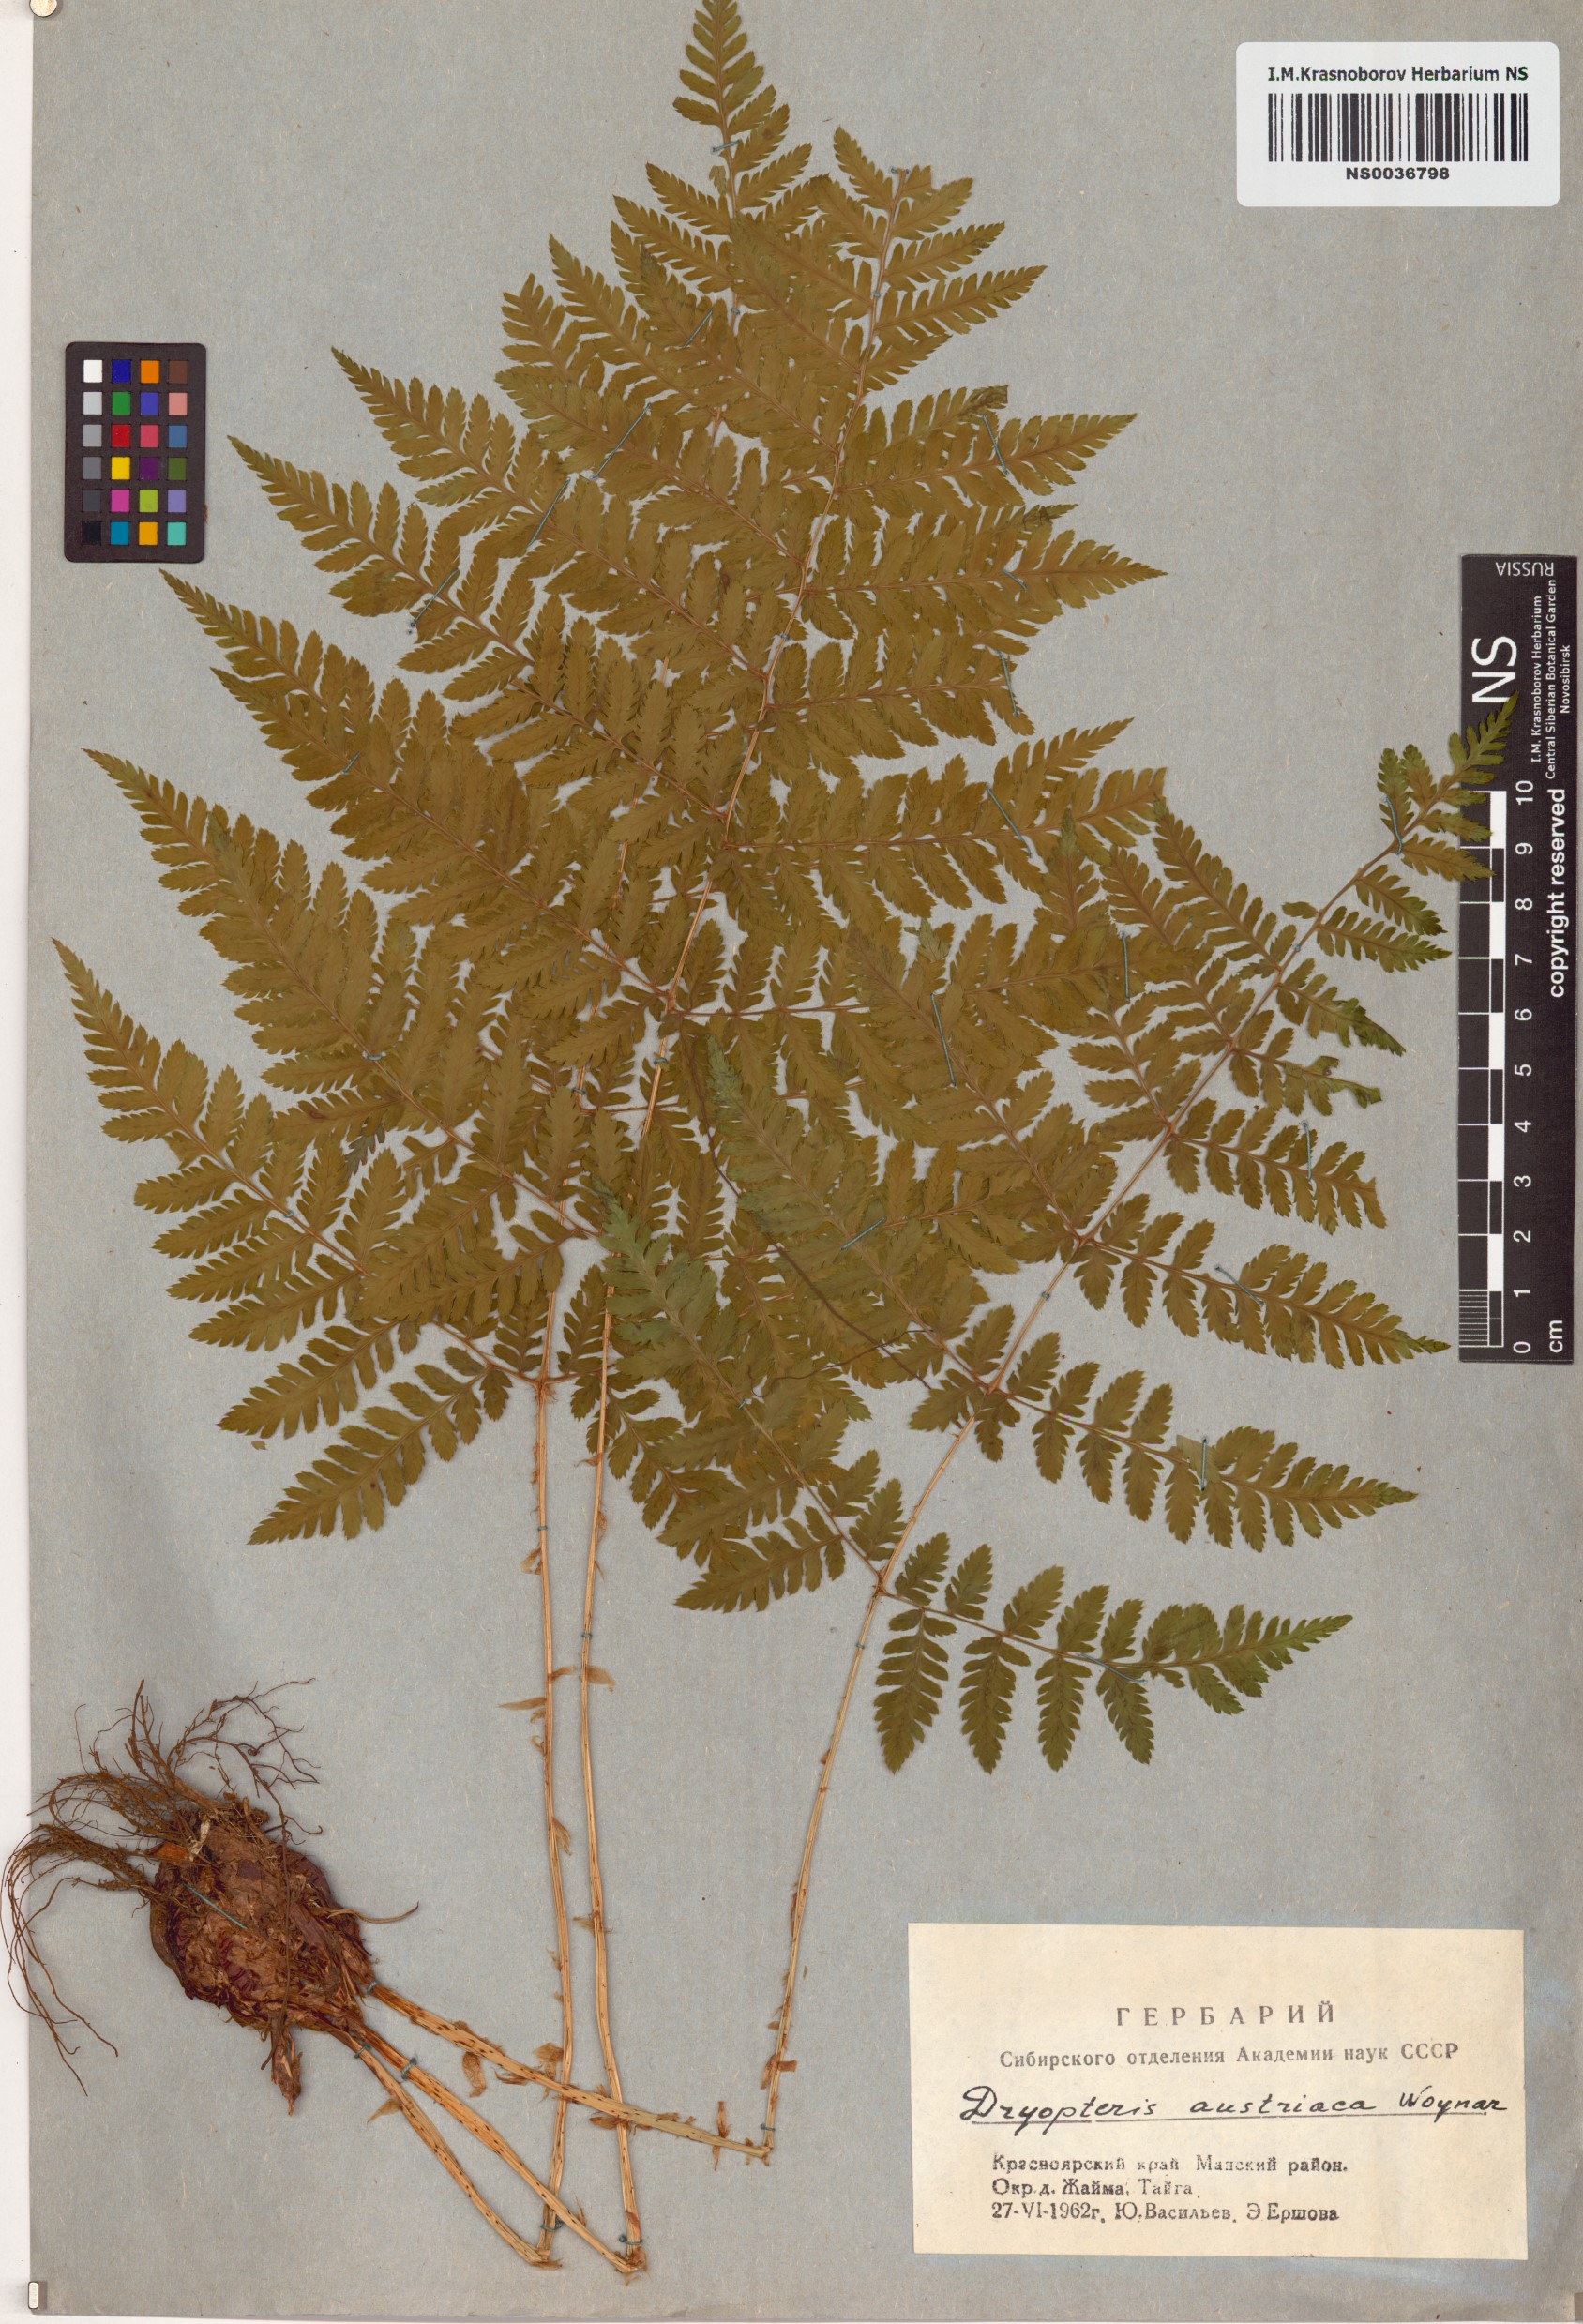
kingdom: Plantae
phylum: Tracheophyta
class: Polypodiopsida
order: Polypodiales
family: Dryopteridaceae
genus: Dryopteris
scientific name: Dryopteris dilatata
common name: Broad buckler-fern
